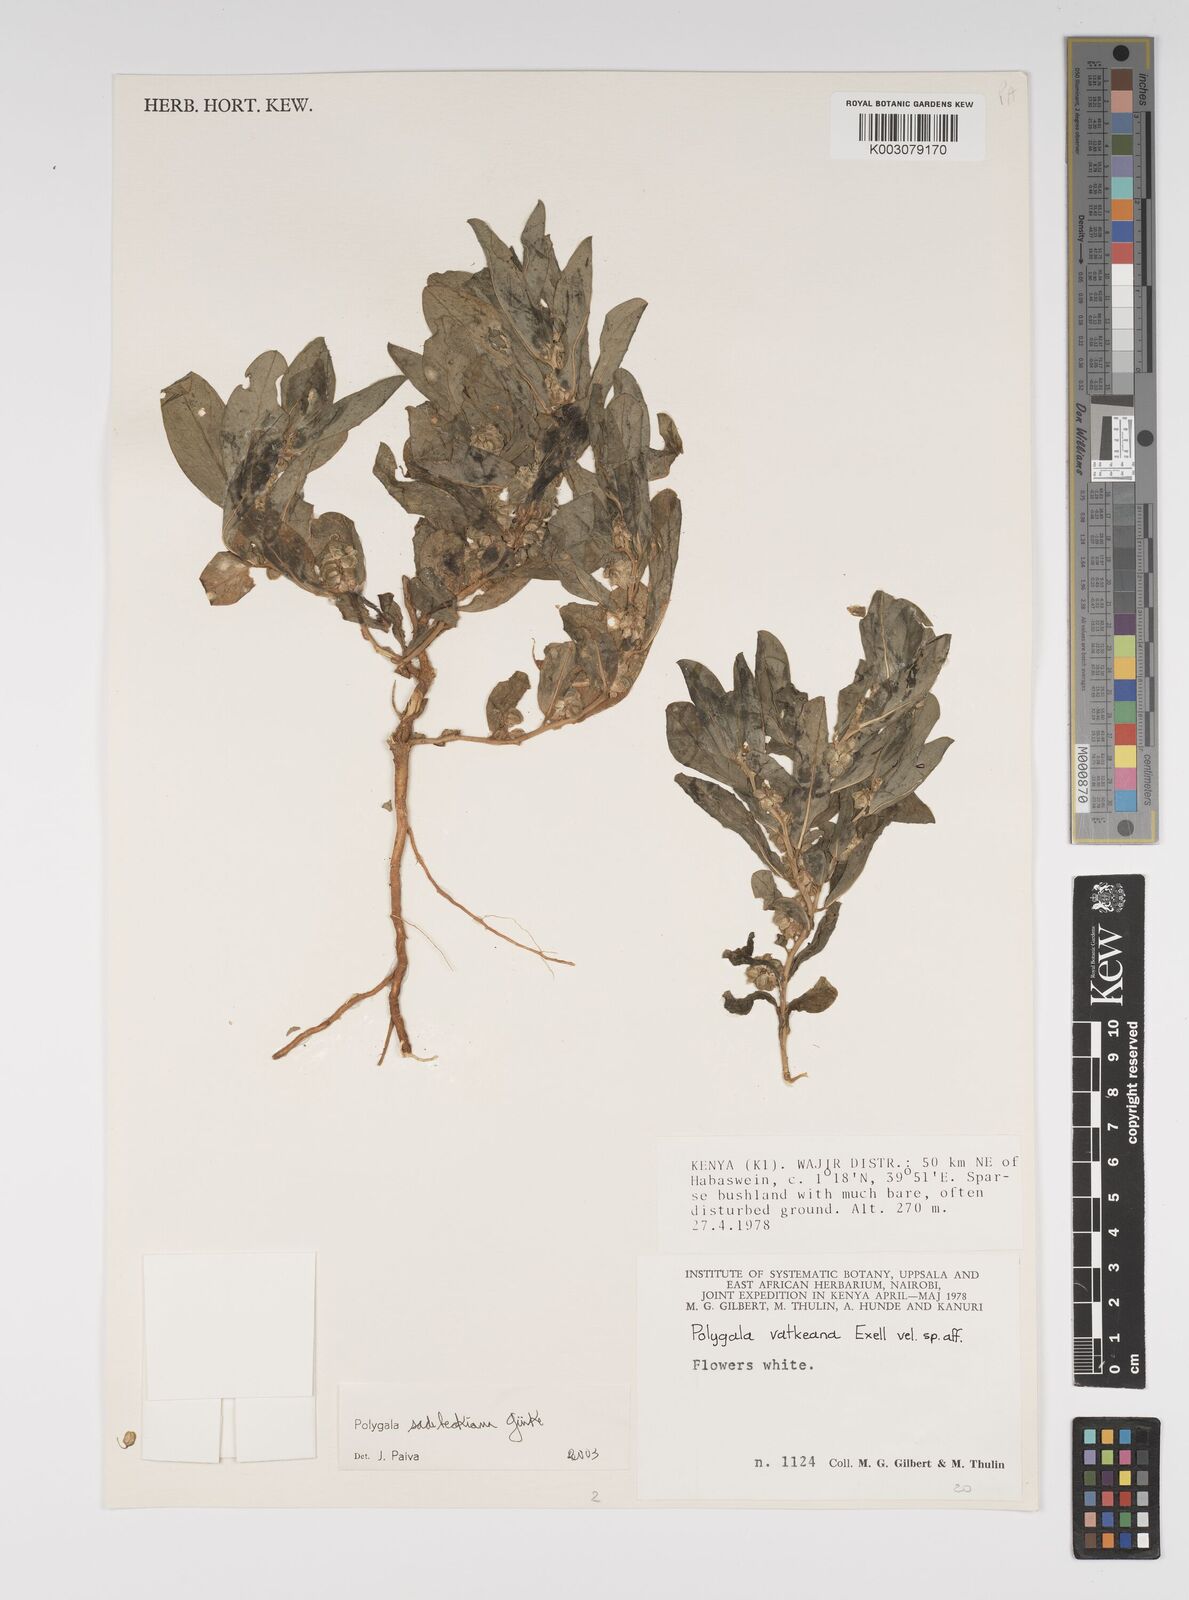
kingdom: Plantae
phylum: Tracheophyta
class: Magnoliopsida
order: Fabales
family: Polygalaceae
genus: Polygala
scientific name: Polygala sadebeckiana
